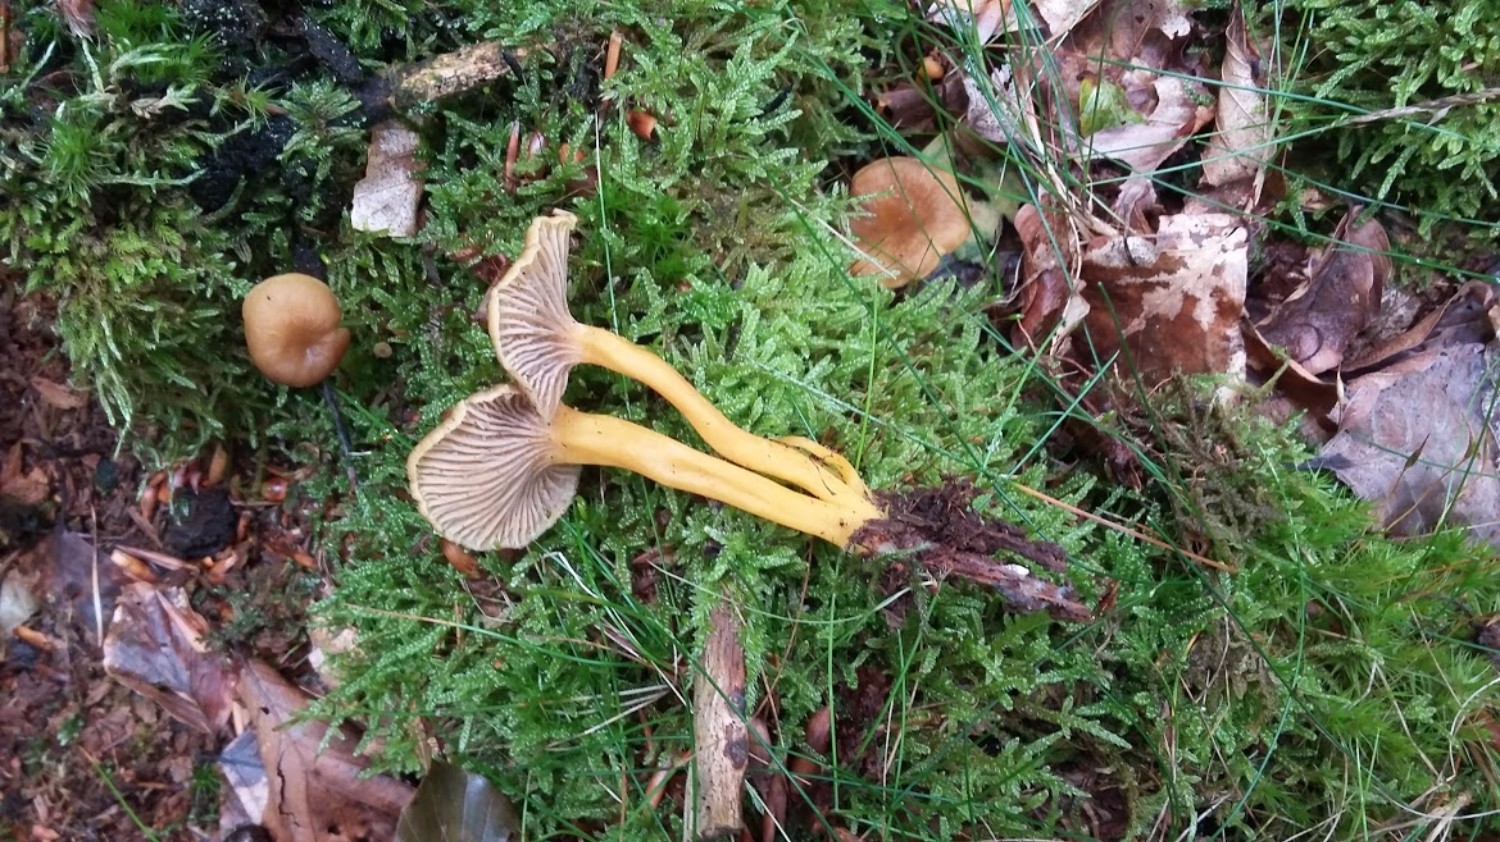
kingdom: Fungi
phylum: Basidiomycota
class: Agaricomycetes
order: Cantharellales
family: Hydnaceae
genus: Craterellus
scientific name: Craterellus tubaeformis
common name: tragt-kantarel
